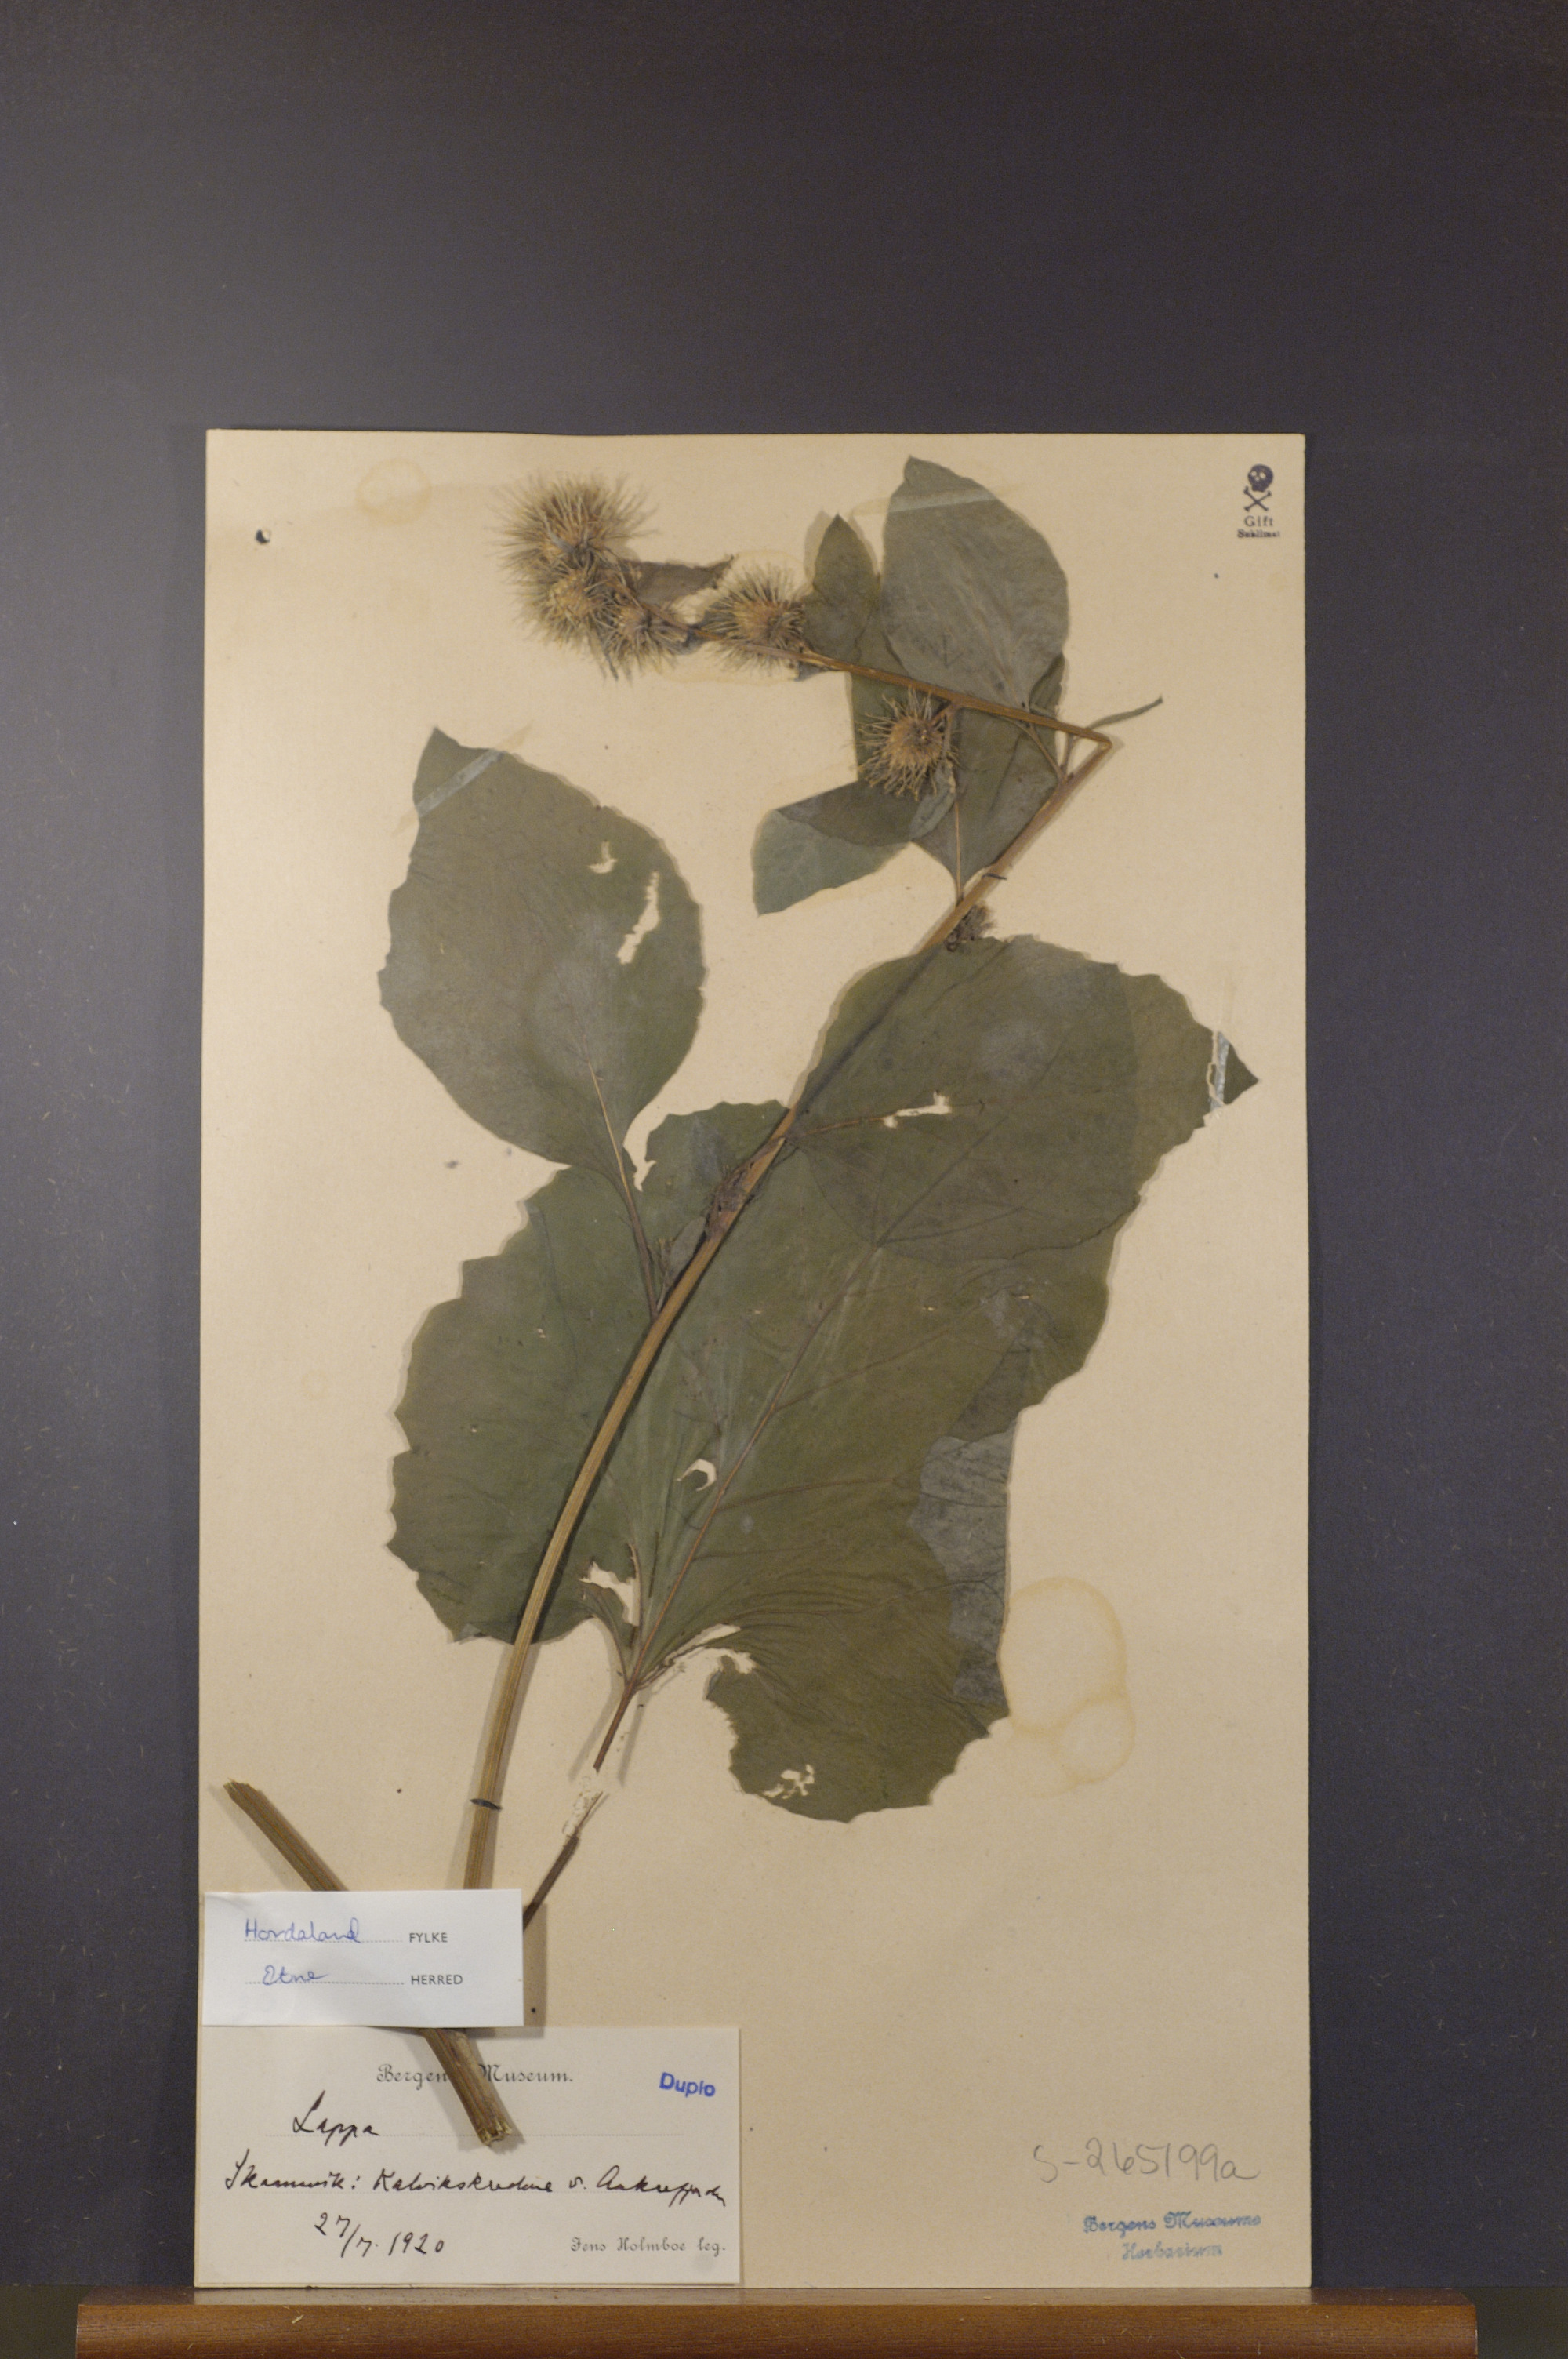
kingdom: Plantae
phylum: Tracheophyta
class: Magnoliopsida
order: Asterales
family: Asteraceae
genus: Arctium
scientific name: Arctium
